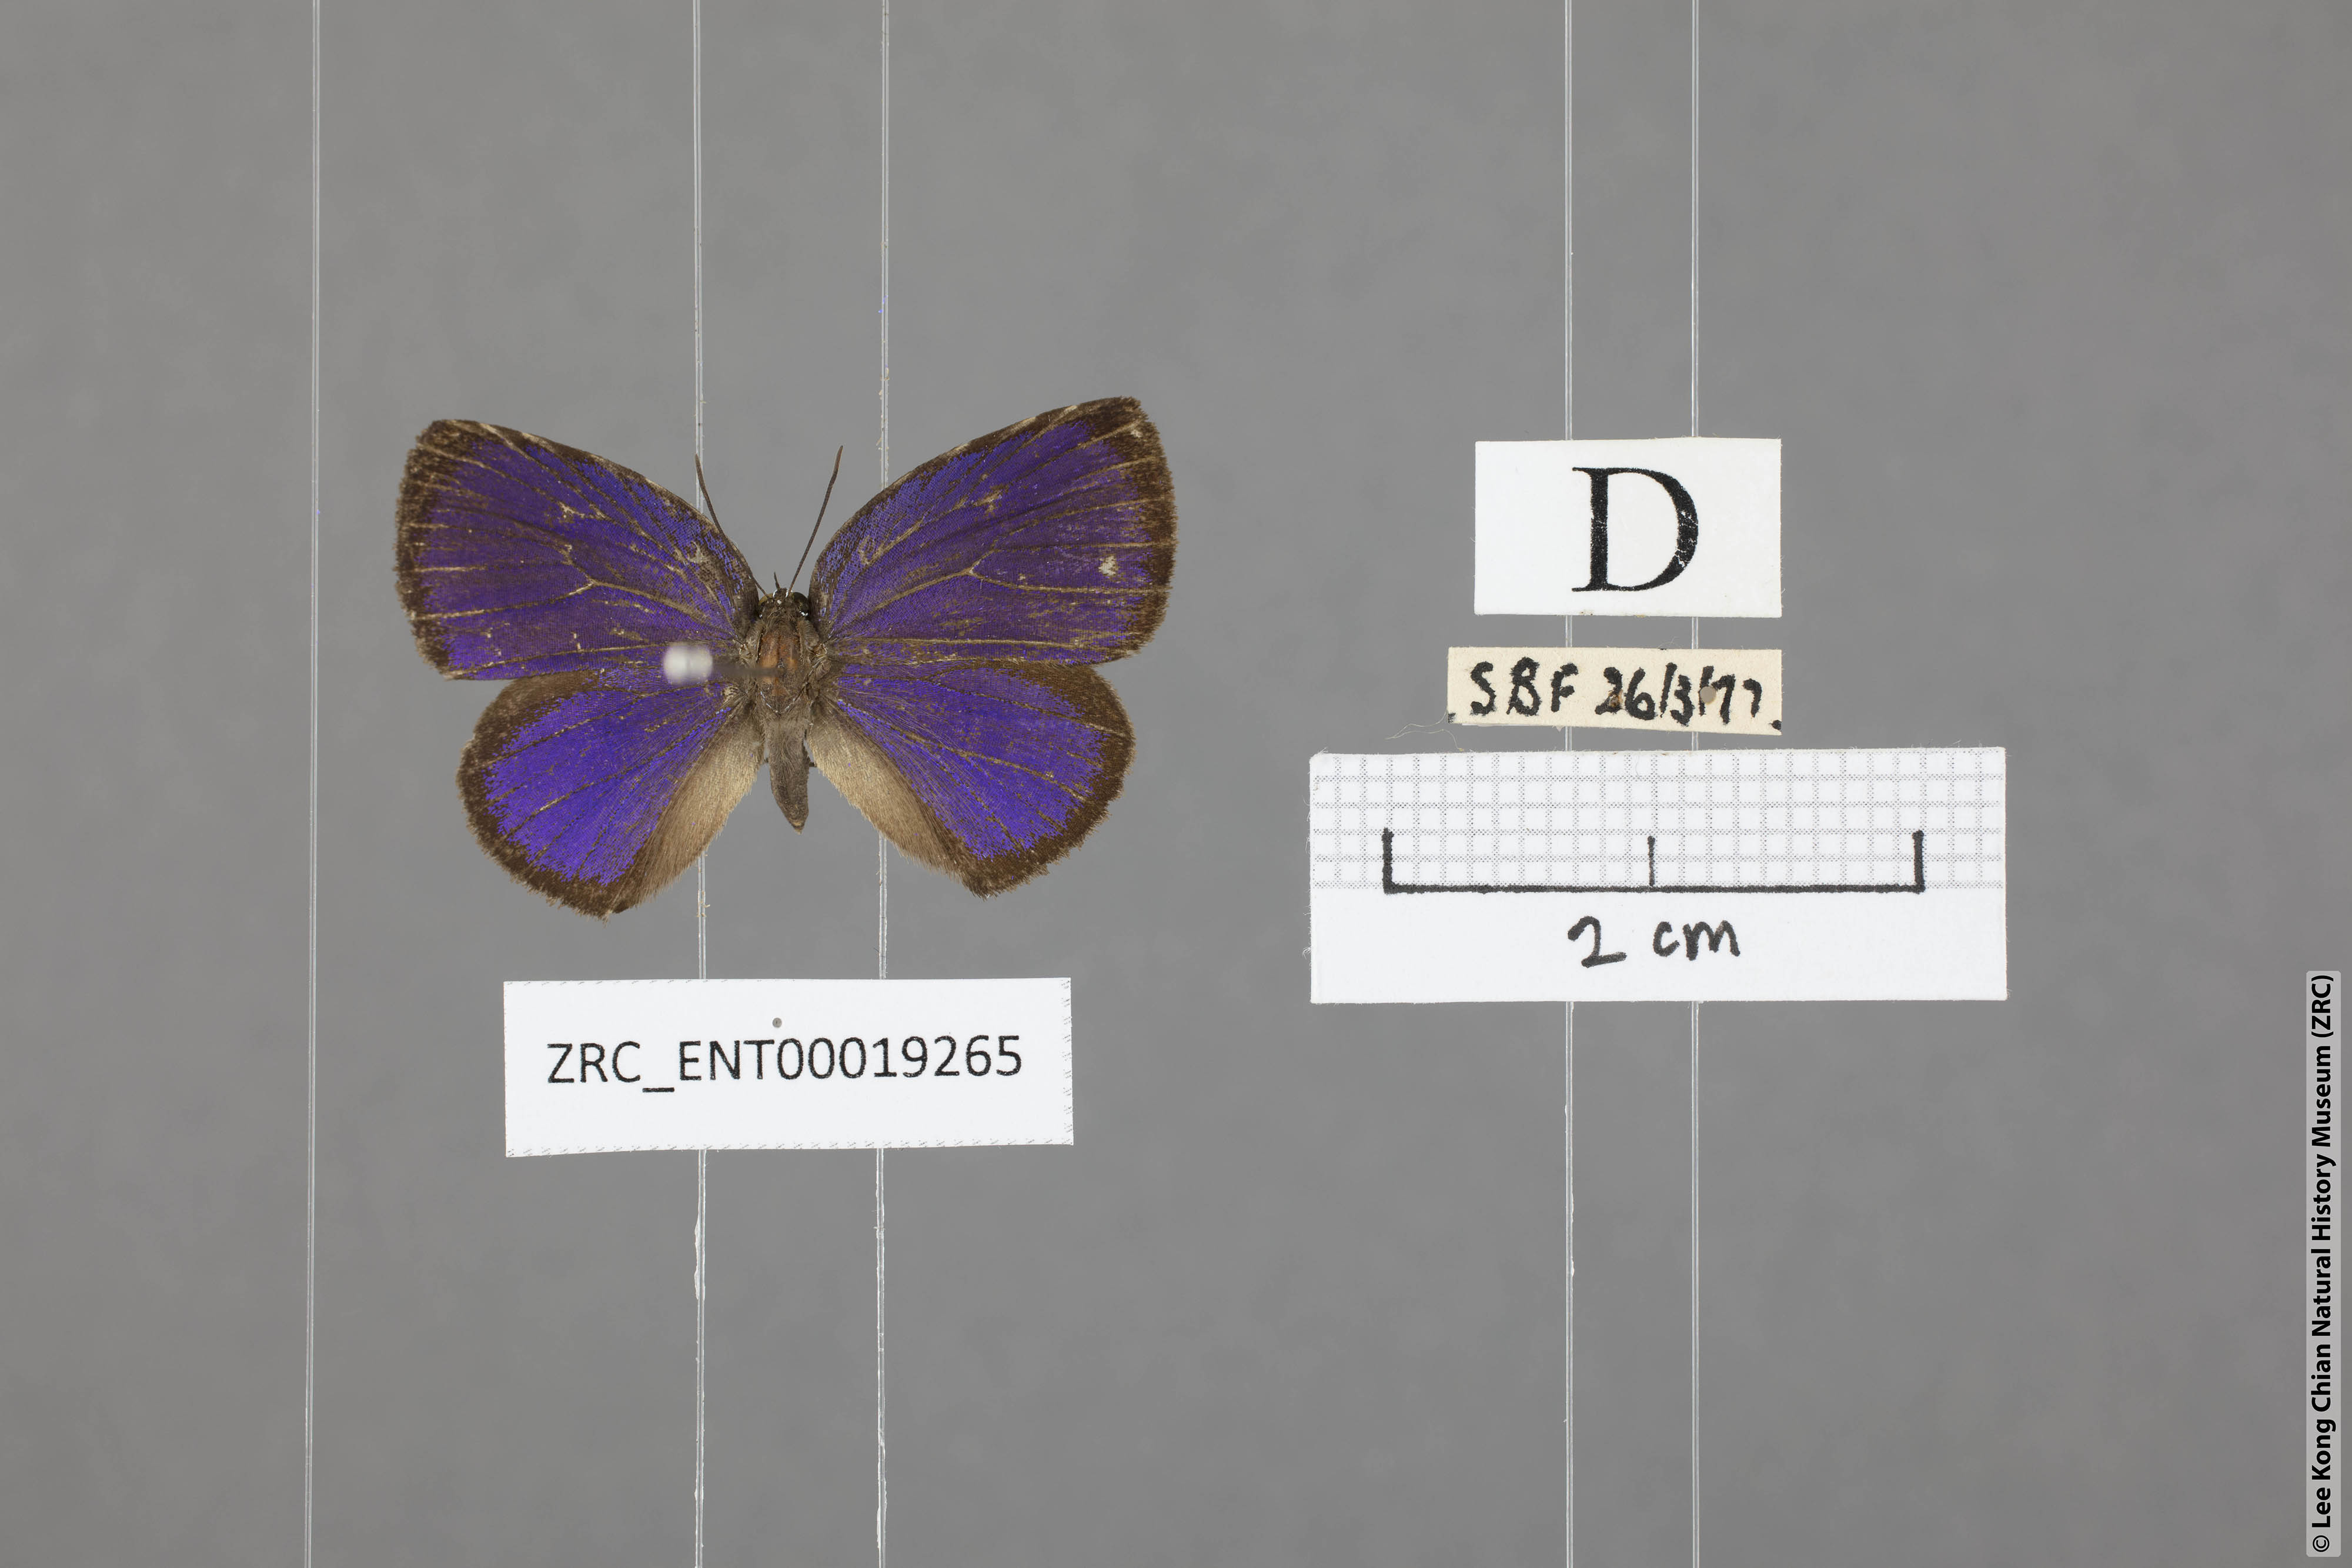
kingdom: Animalia
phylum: Arthropoda
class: Insecta
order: Lepidoptera
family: Lycaenidae
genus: Arhopala
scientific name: Arhopala avathina
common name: Lunulate yellow oakblue
